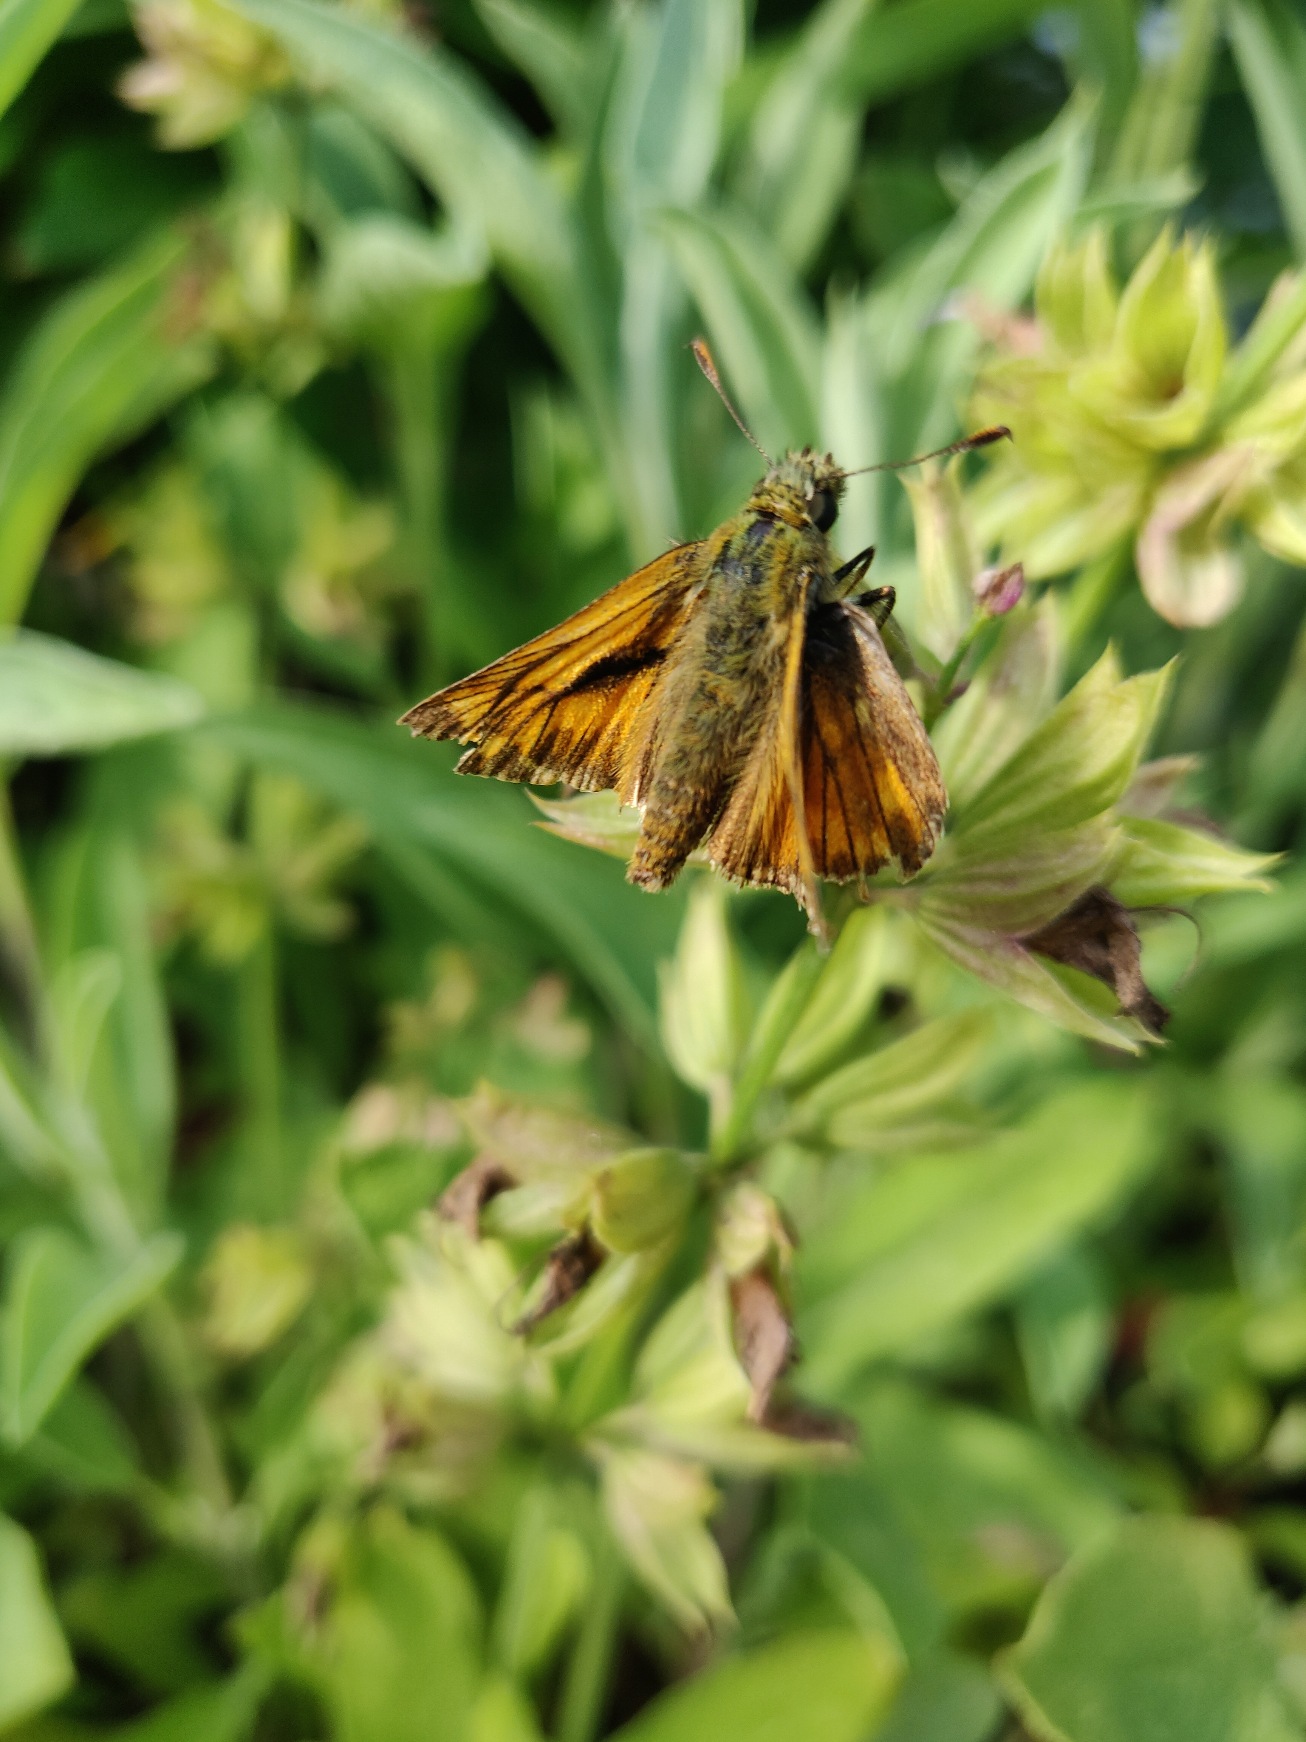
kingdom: Animalia
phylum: Arthropoda
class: Insecta
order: Lepidoptera
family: Hesperiidae
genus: Ochlodes
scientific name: Ochlodes venata
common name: Stor bredpande
